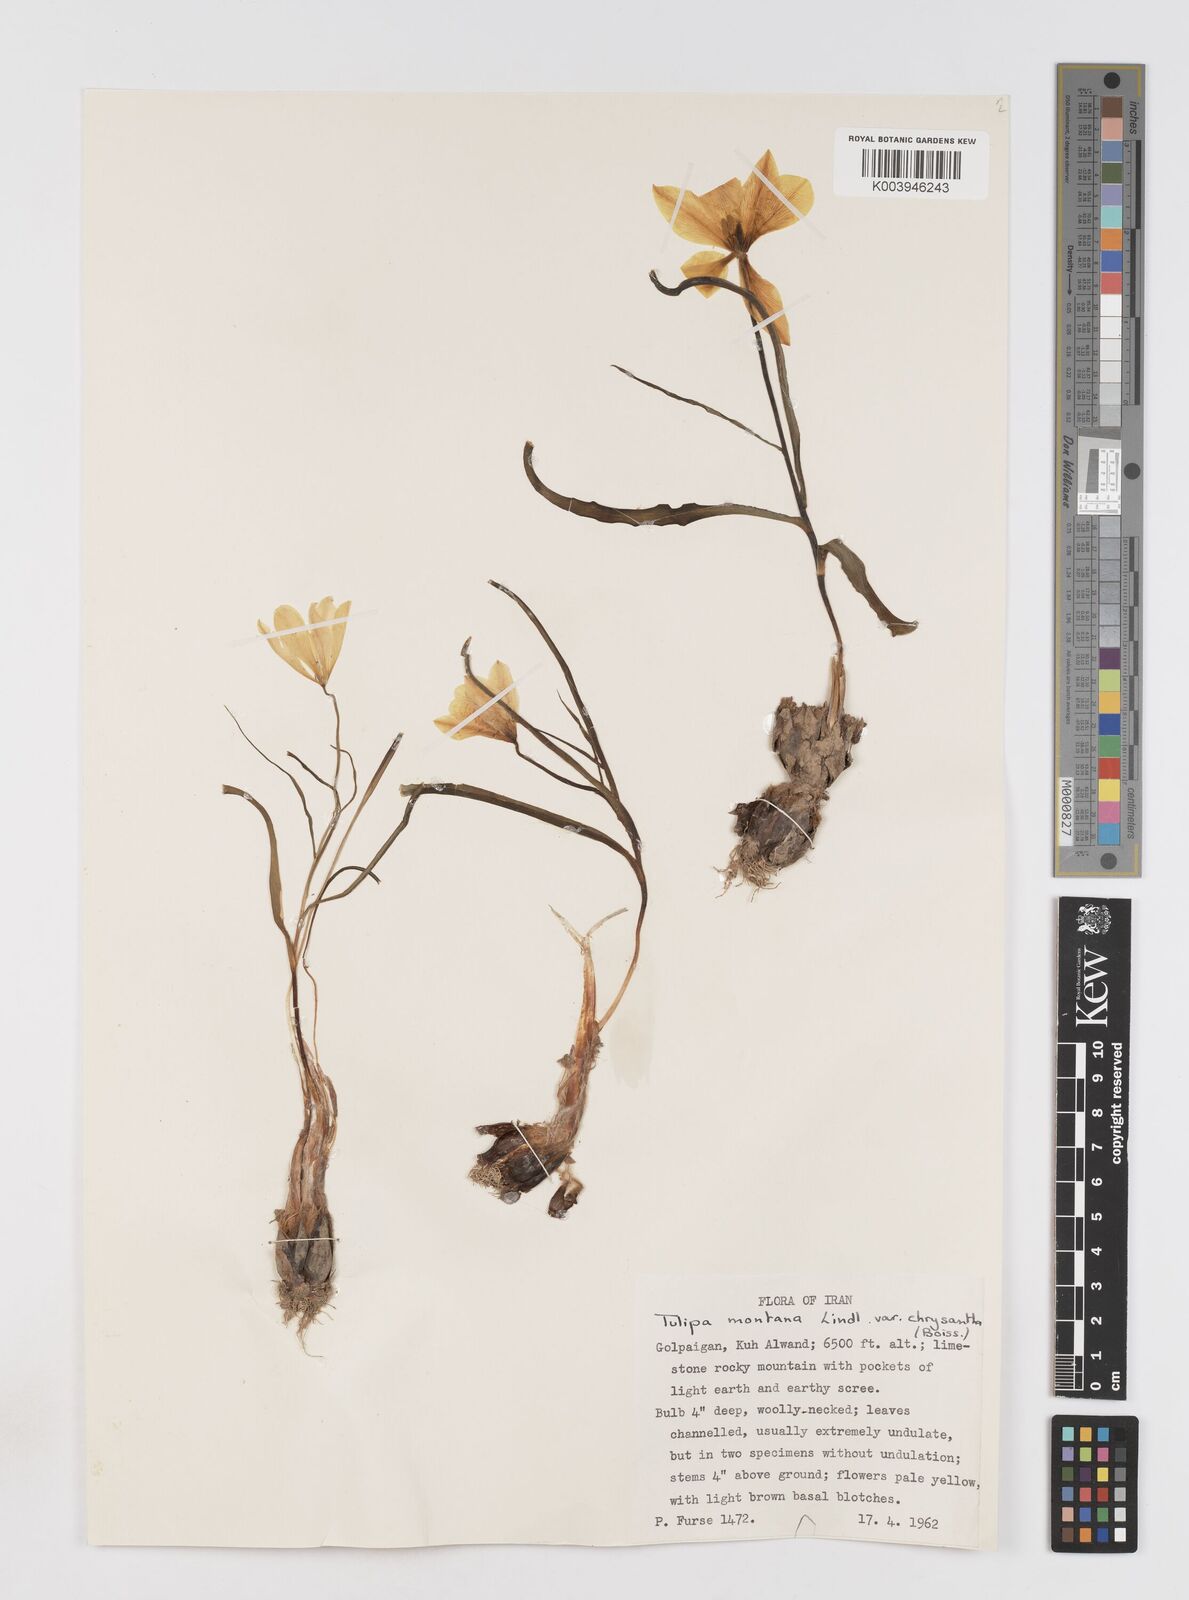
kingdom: Plantae
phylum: Tracheophyta
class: Liliopsida
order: Liliales
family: Liliaceae
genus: Tulipa
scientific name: Tulipa montana
